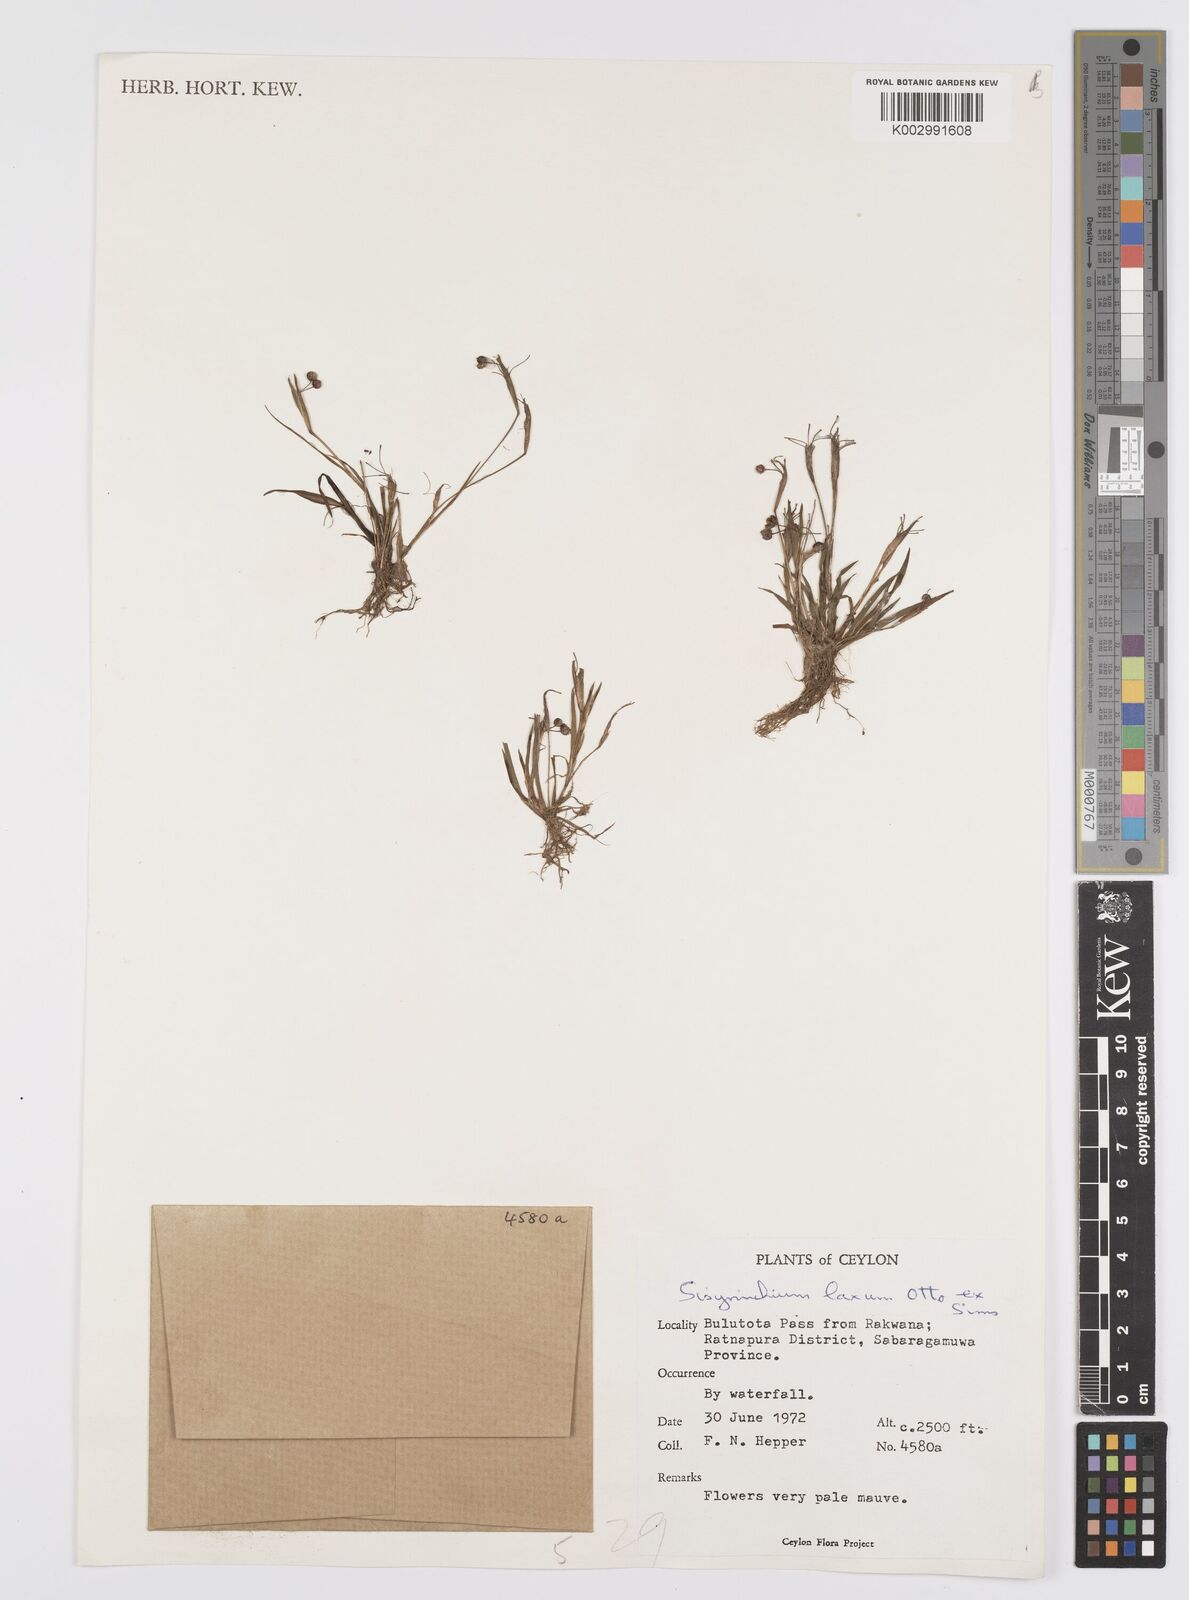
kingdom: Plantae
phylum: Tracheophyta
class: Liliopsida
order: Asparagales
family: Iridaceae
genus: Sisyrinchium
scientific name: Sisyrinchium laxum
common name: Veined yellow-eyed-grass
